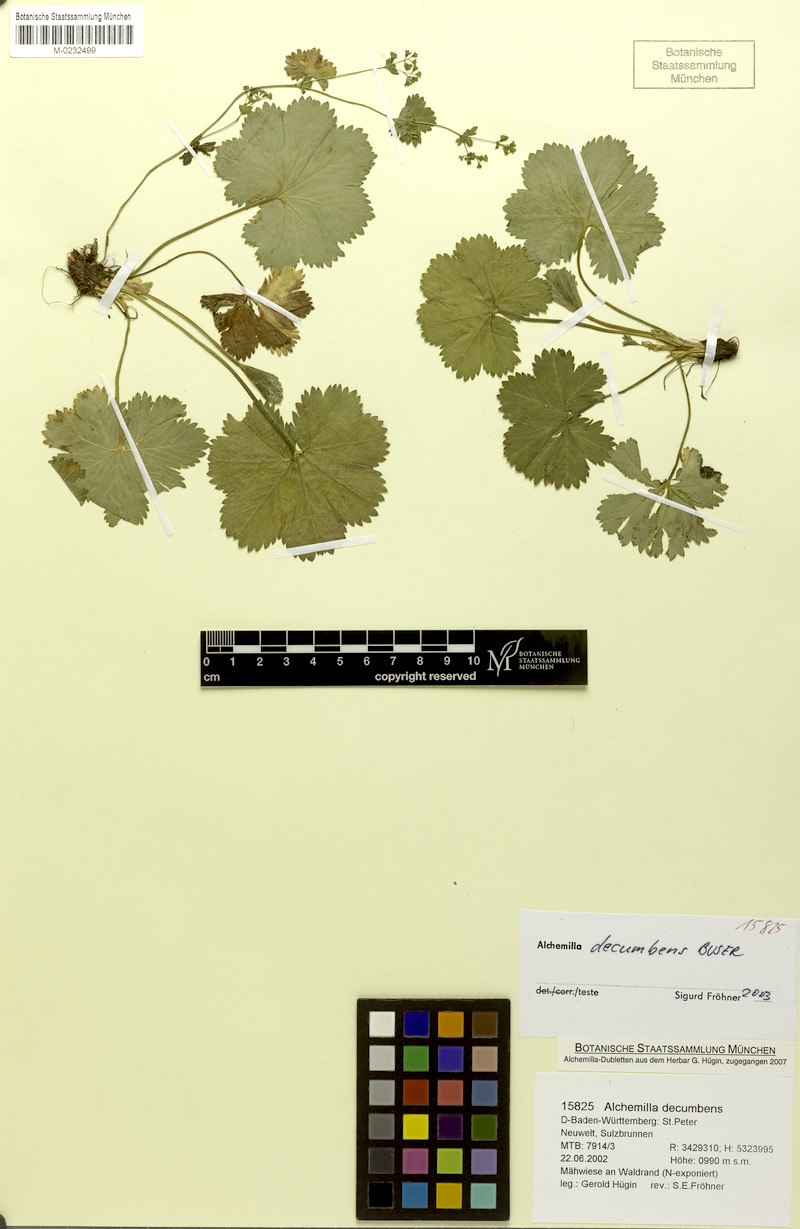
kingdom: Plantae
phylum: Tracheophyta
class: Magnoliopsida
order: Rosales
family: Rosaceae
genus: Alchemilla
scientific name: Alchemilla decumbens
